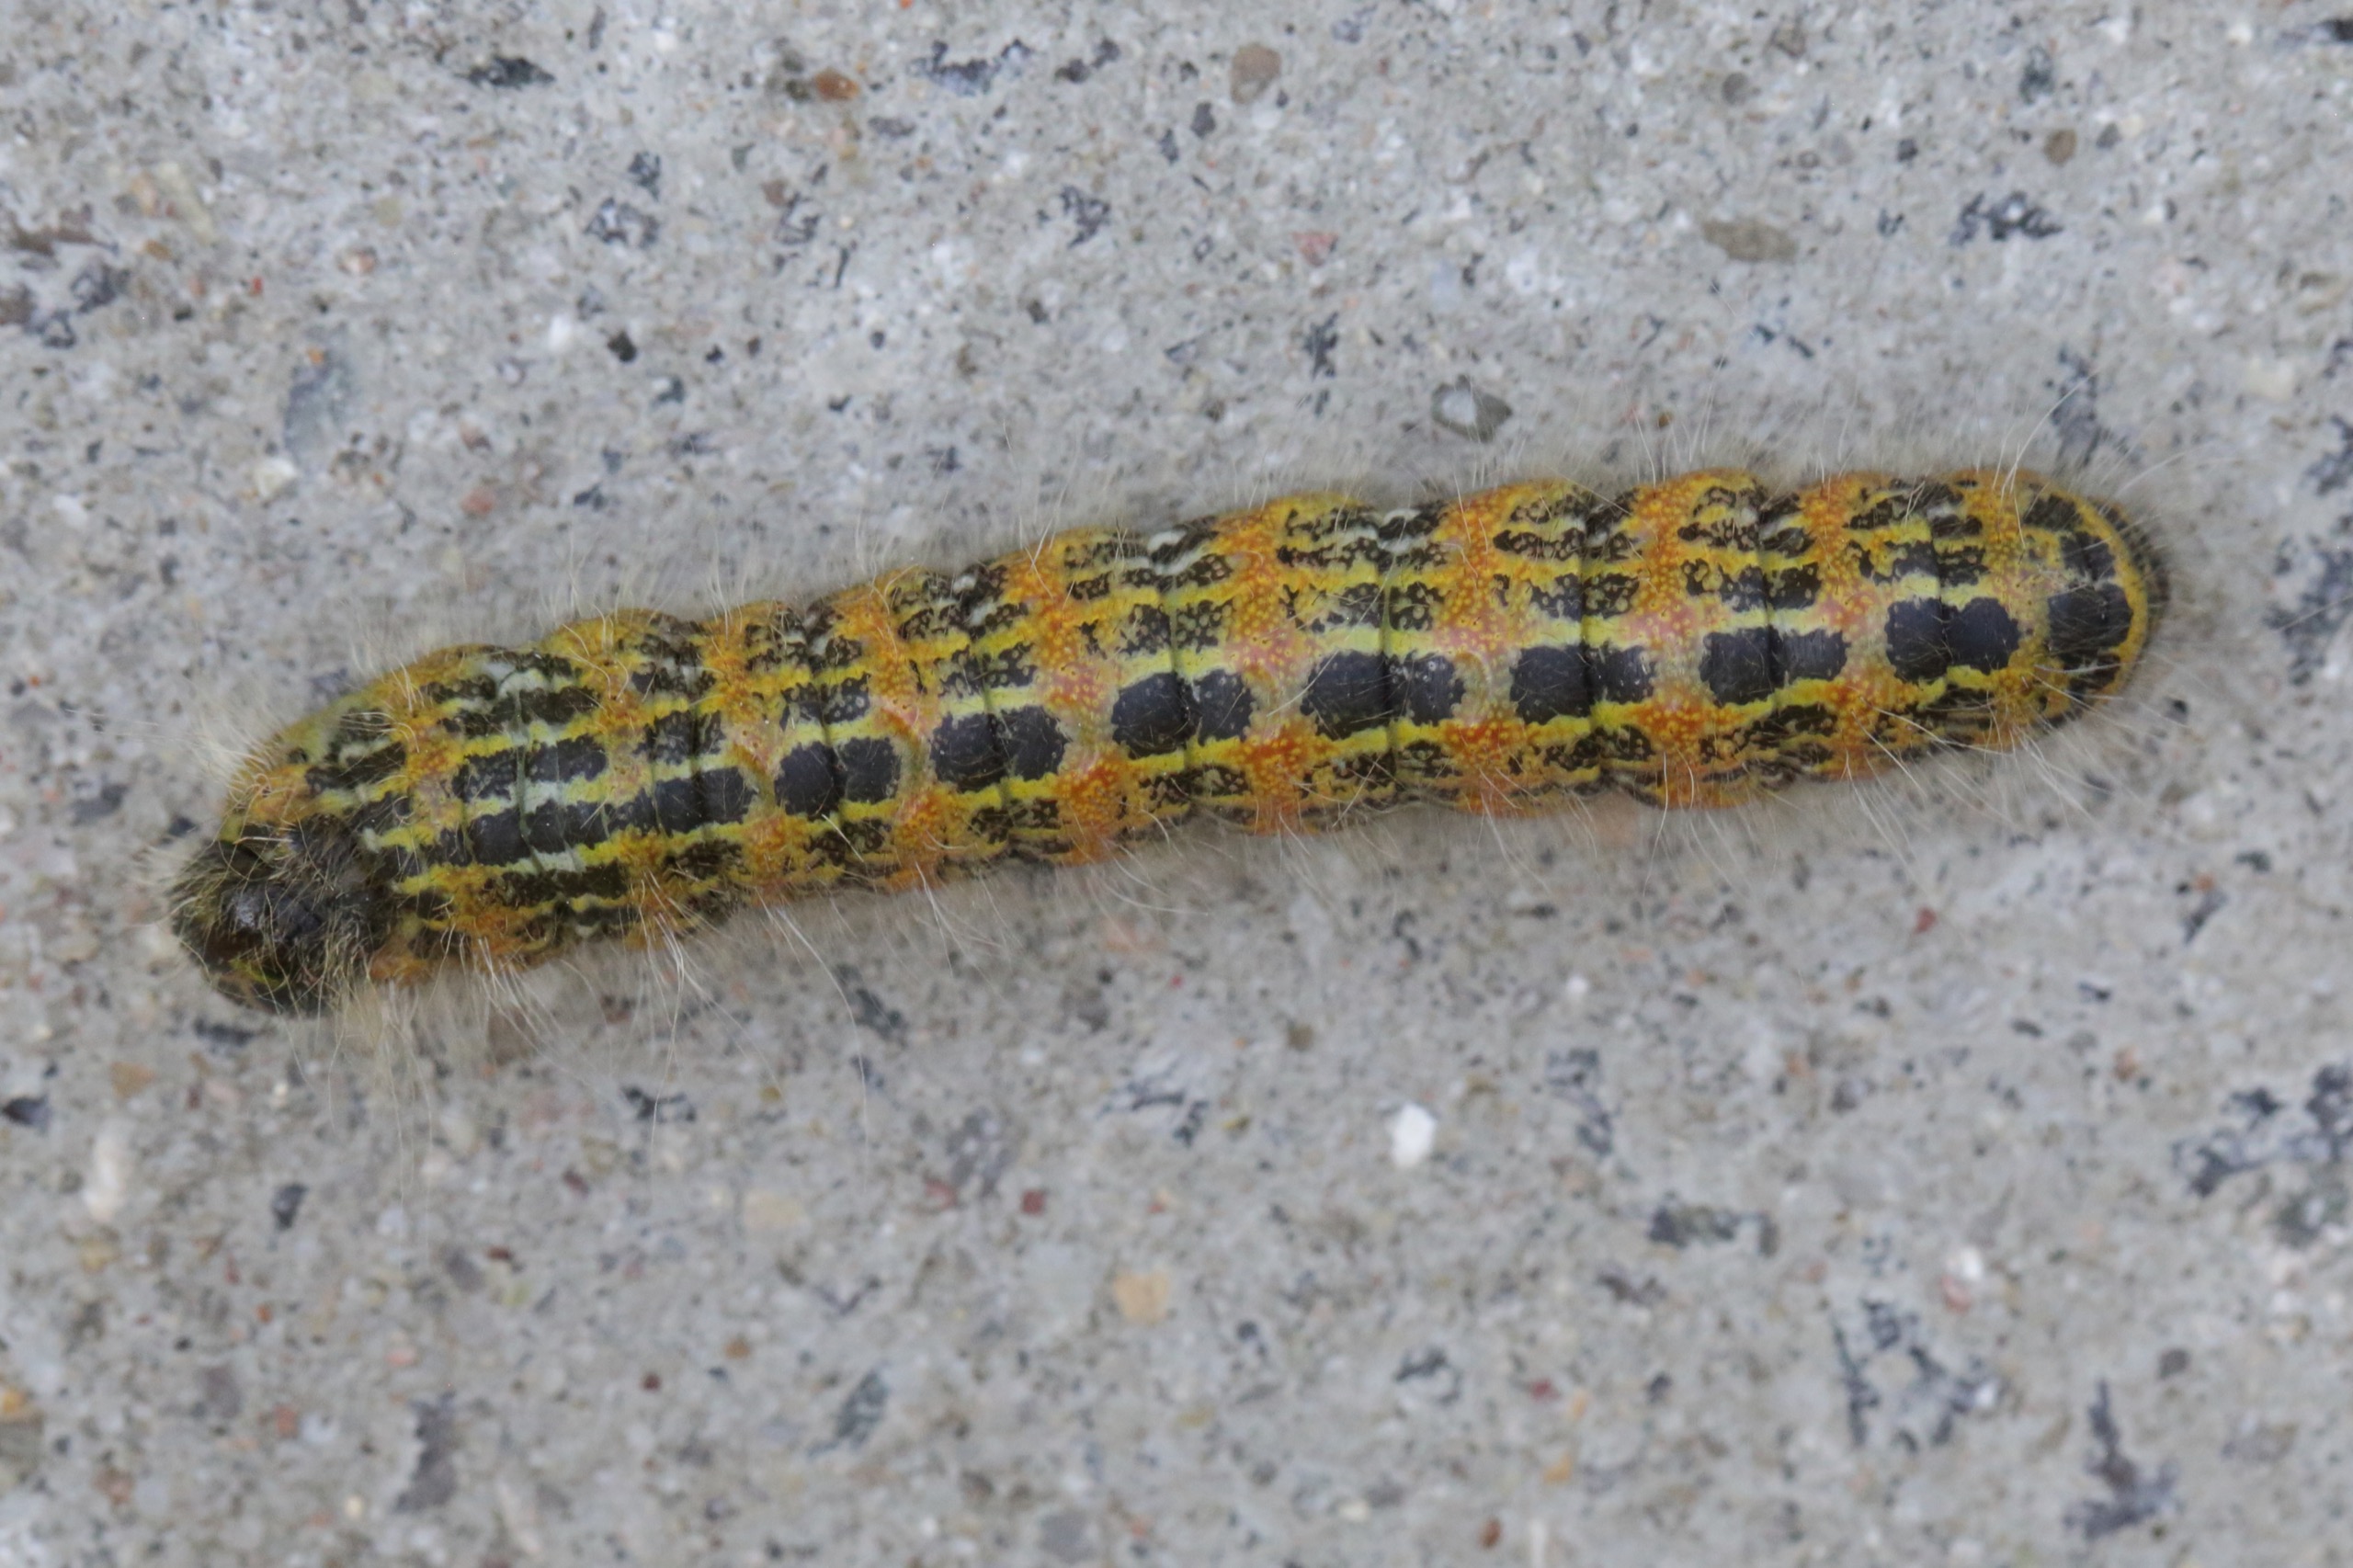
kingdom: Animalia
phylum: Arthropoda
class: Insecta
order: Lepidoptera
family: Notodontidae
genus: Phalera
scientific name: Phalera bucephala
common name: Måneplet
